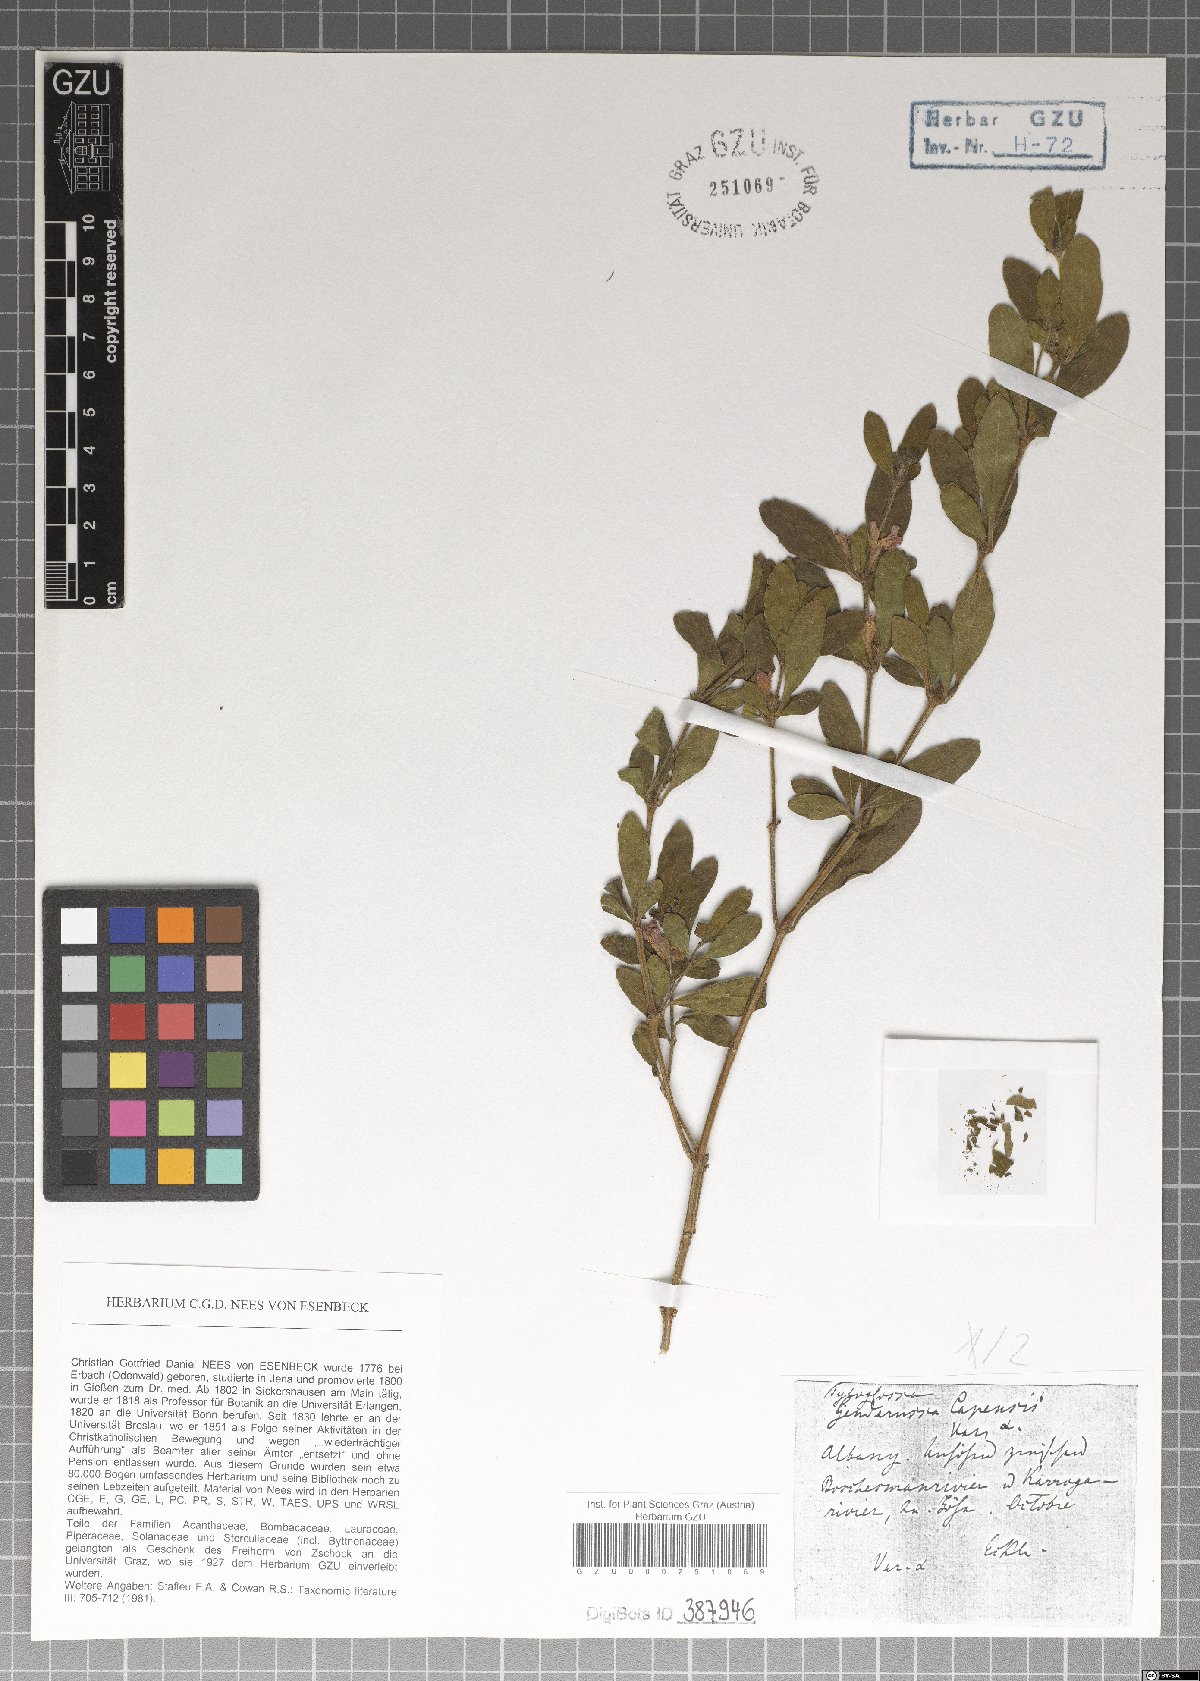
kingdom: Plantae
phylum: Tracheophyta
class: Magnoliopsida
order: Lamiales
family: Acanthaceae
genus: Justicia
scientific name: Justicia capensis
